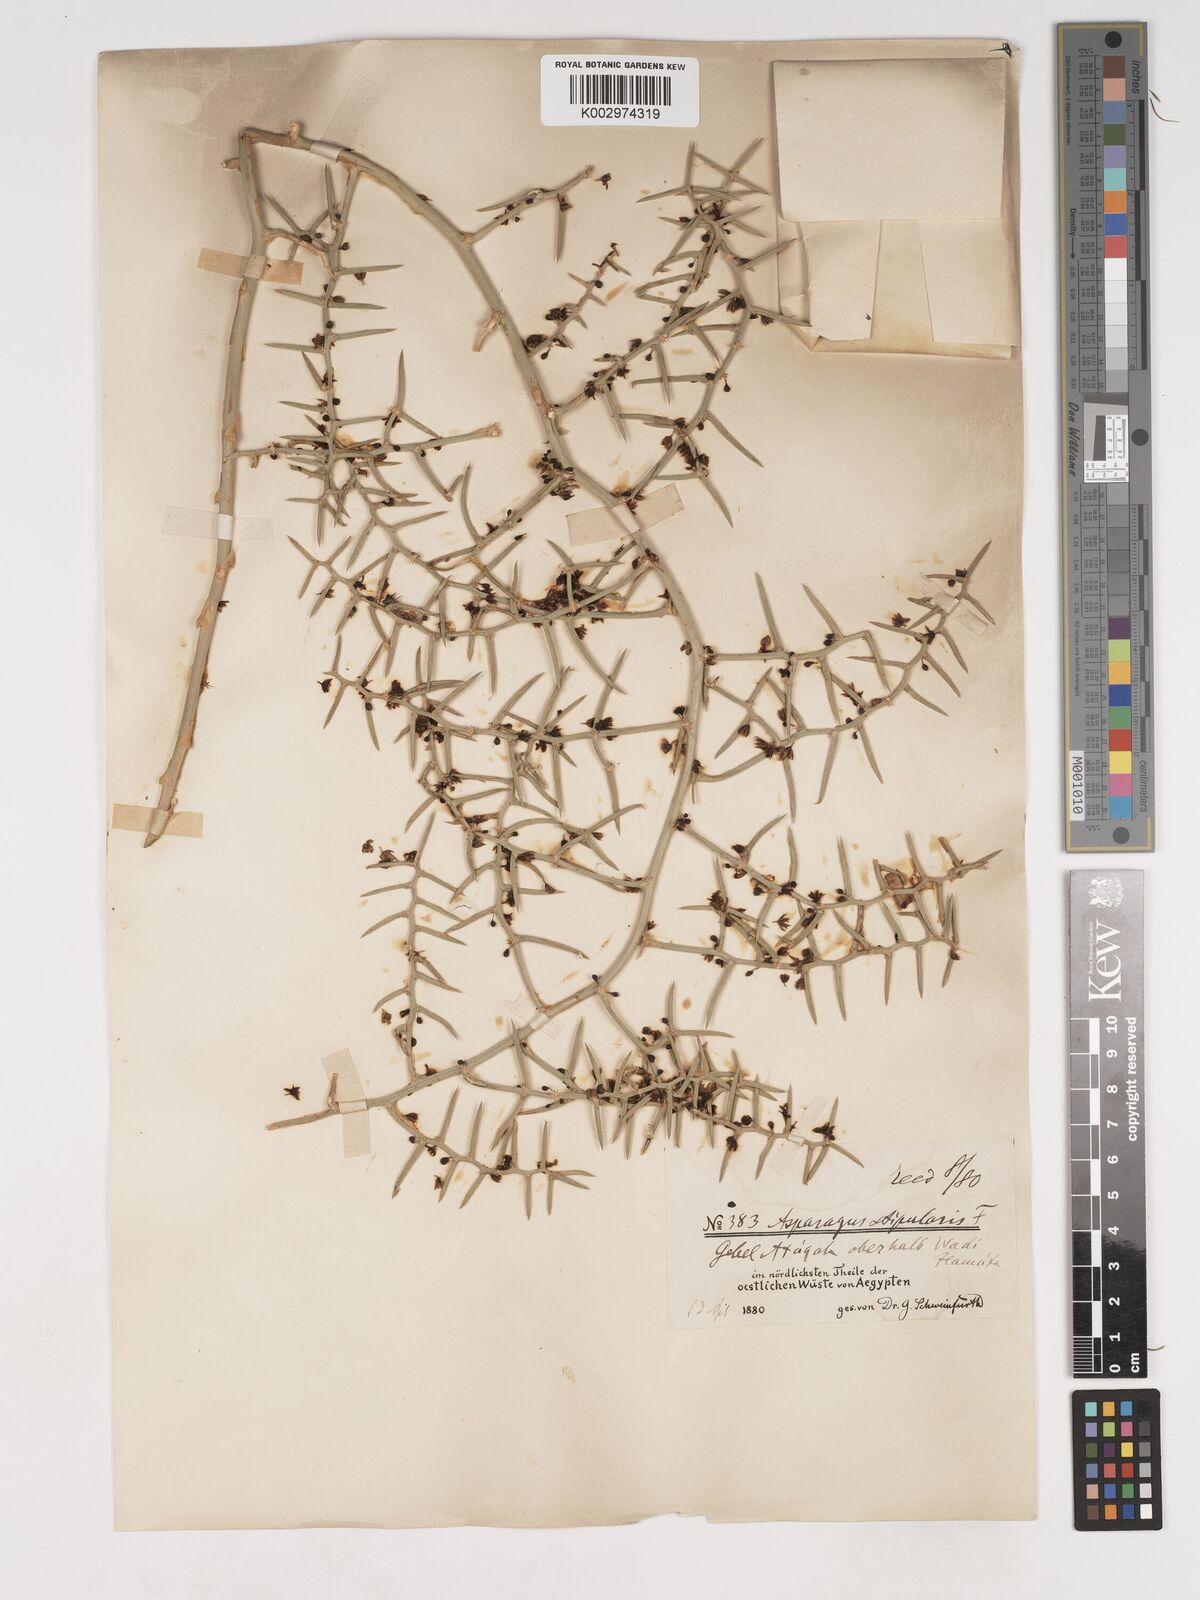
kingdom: Plantae
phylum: Tracheophyta
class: Liliopsida
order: Asparagales
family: Asparagaceae
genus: Asparagus
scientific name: Asparagus horridus
